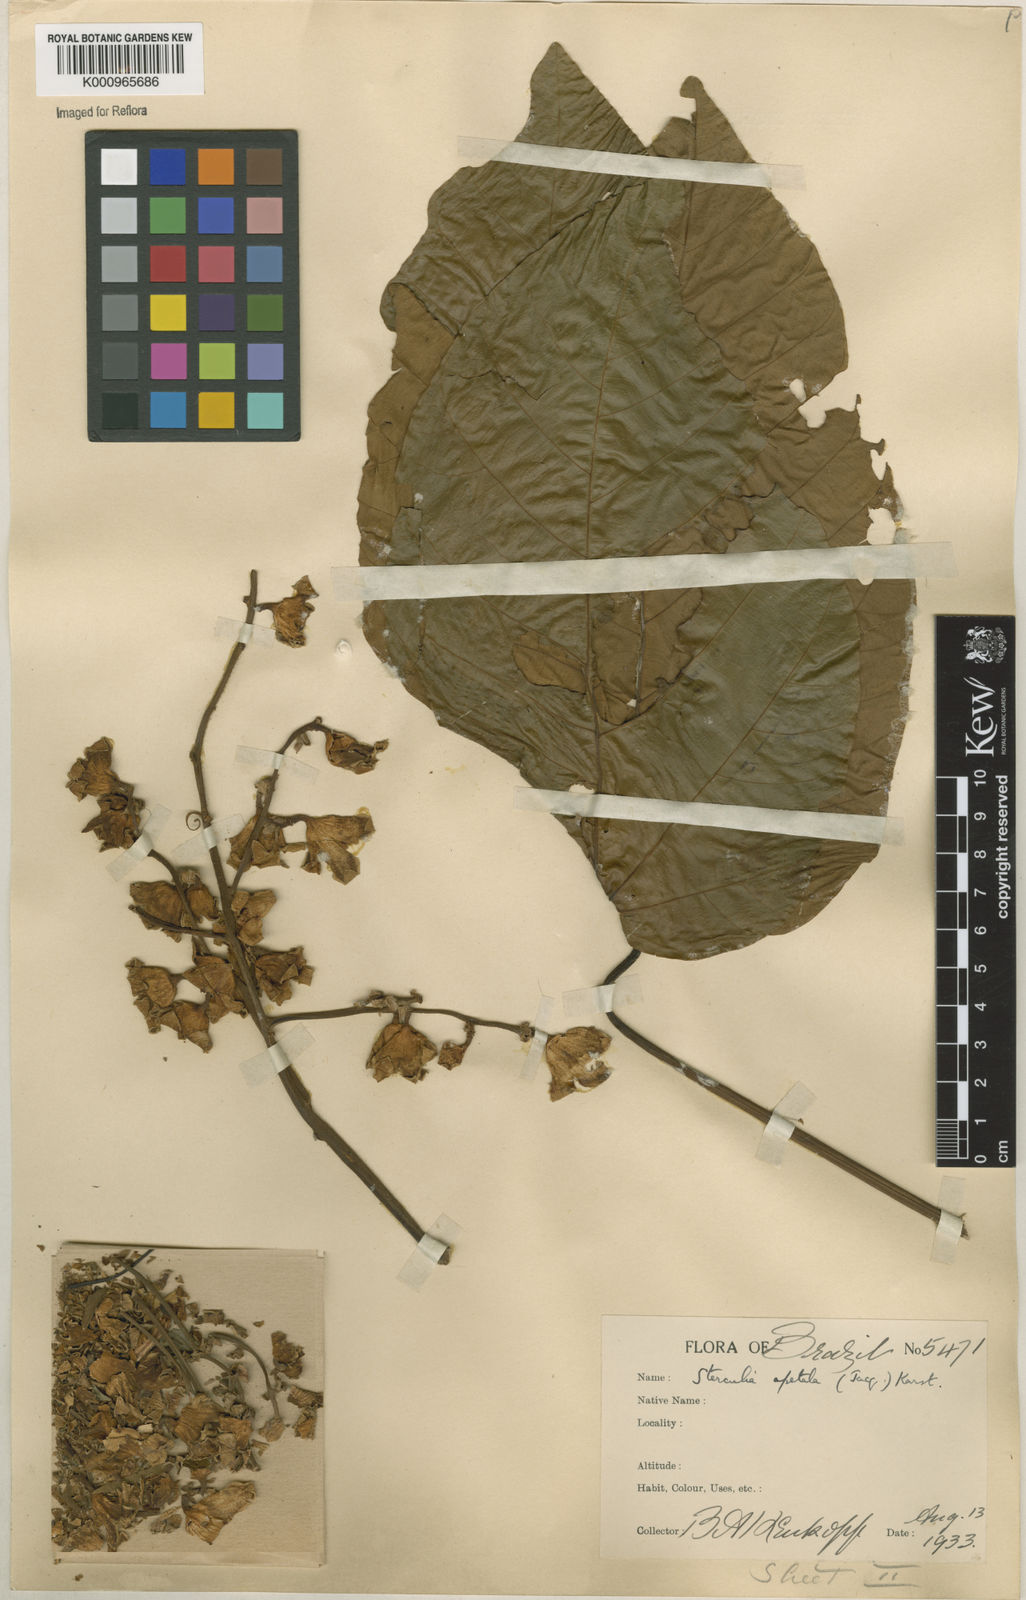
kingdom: Plantae
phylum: Tracheophyta
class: Magnoliopsida
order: Malvales
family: Malvaceae
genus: Sterculia
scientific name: Sterculia apetala
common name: Panama tree
